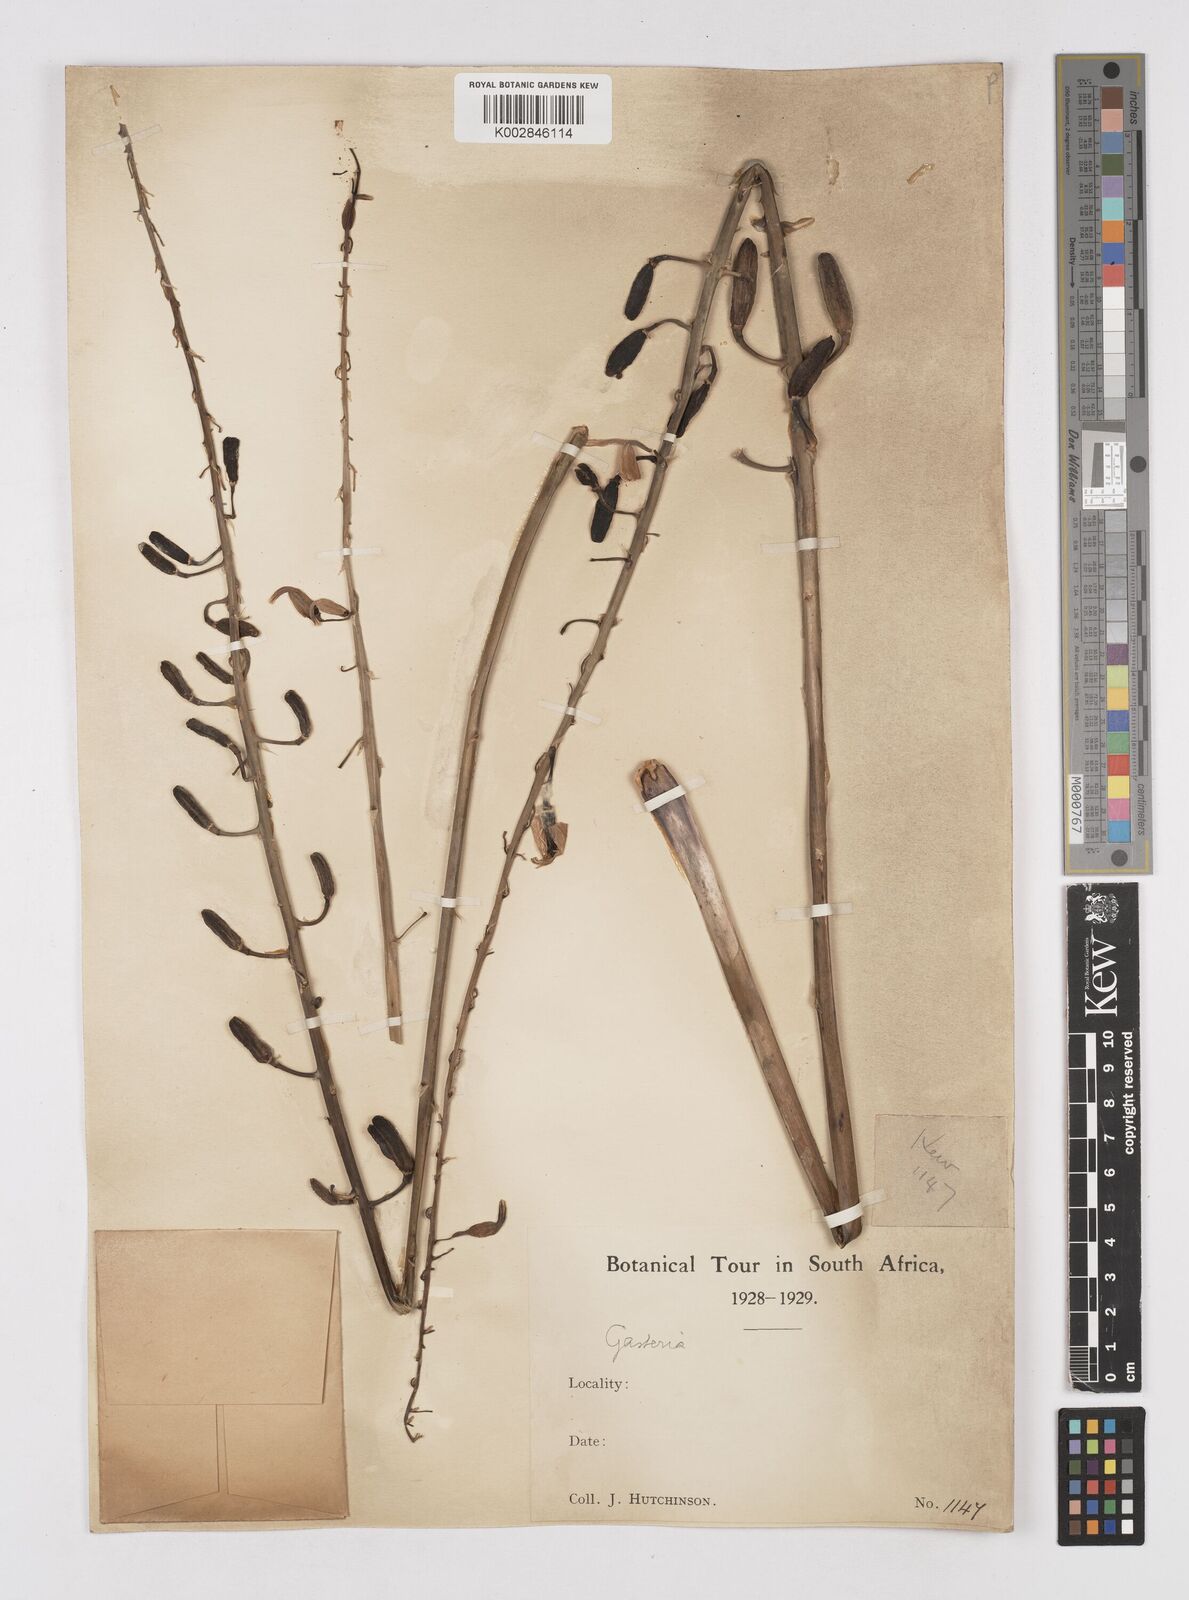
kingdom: Plantae
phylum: Tracheophyta
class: Liliopsida
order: Asparagales
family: Asphodelaceae
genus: Gasteria
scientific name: Gasteria
